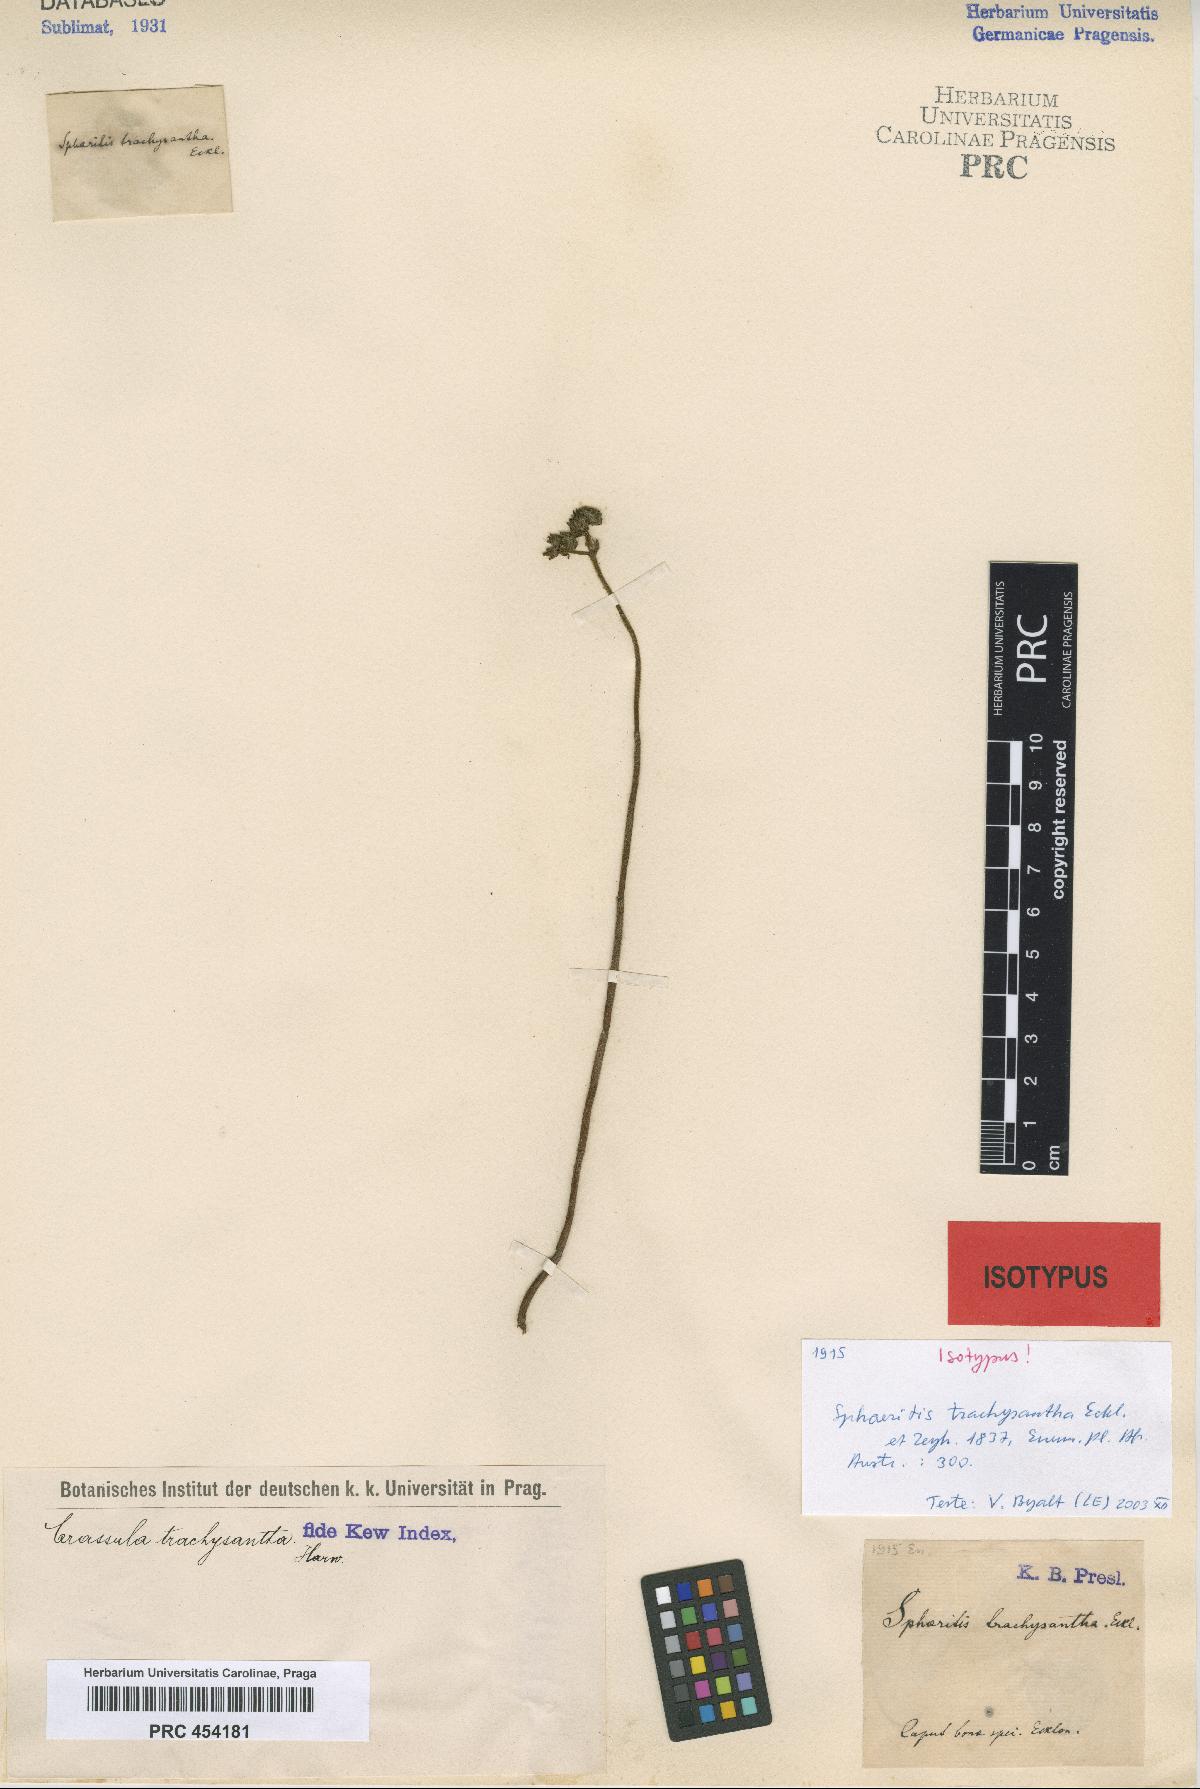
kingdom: Plantae
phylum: Tracheophyta
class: Magnoliopsida
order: Saxifragales
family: Crassulaceae
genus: Crassula
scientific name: Crassula mesembryanthemoides
